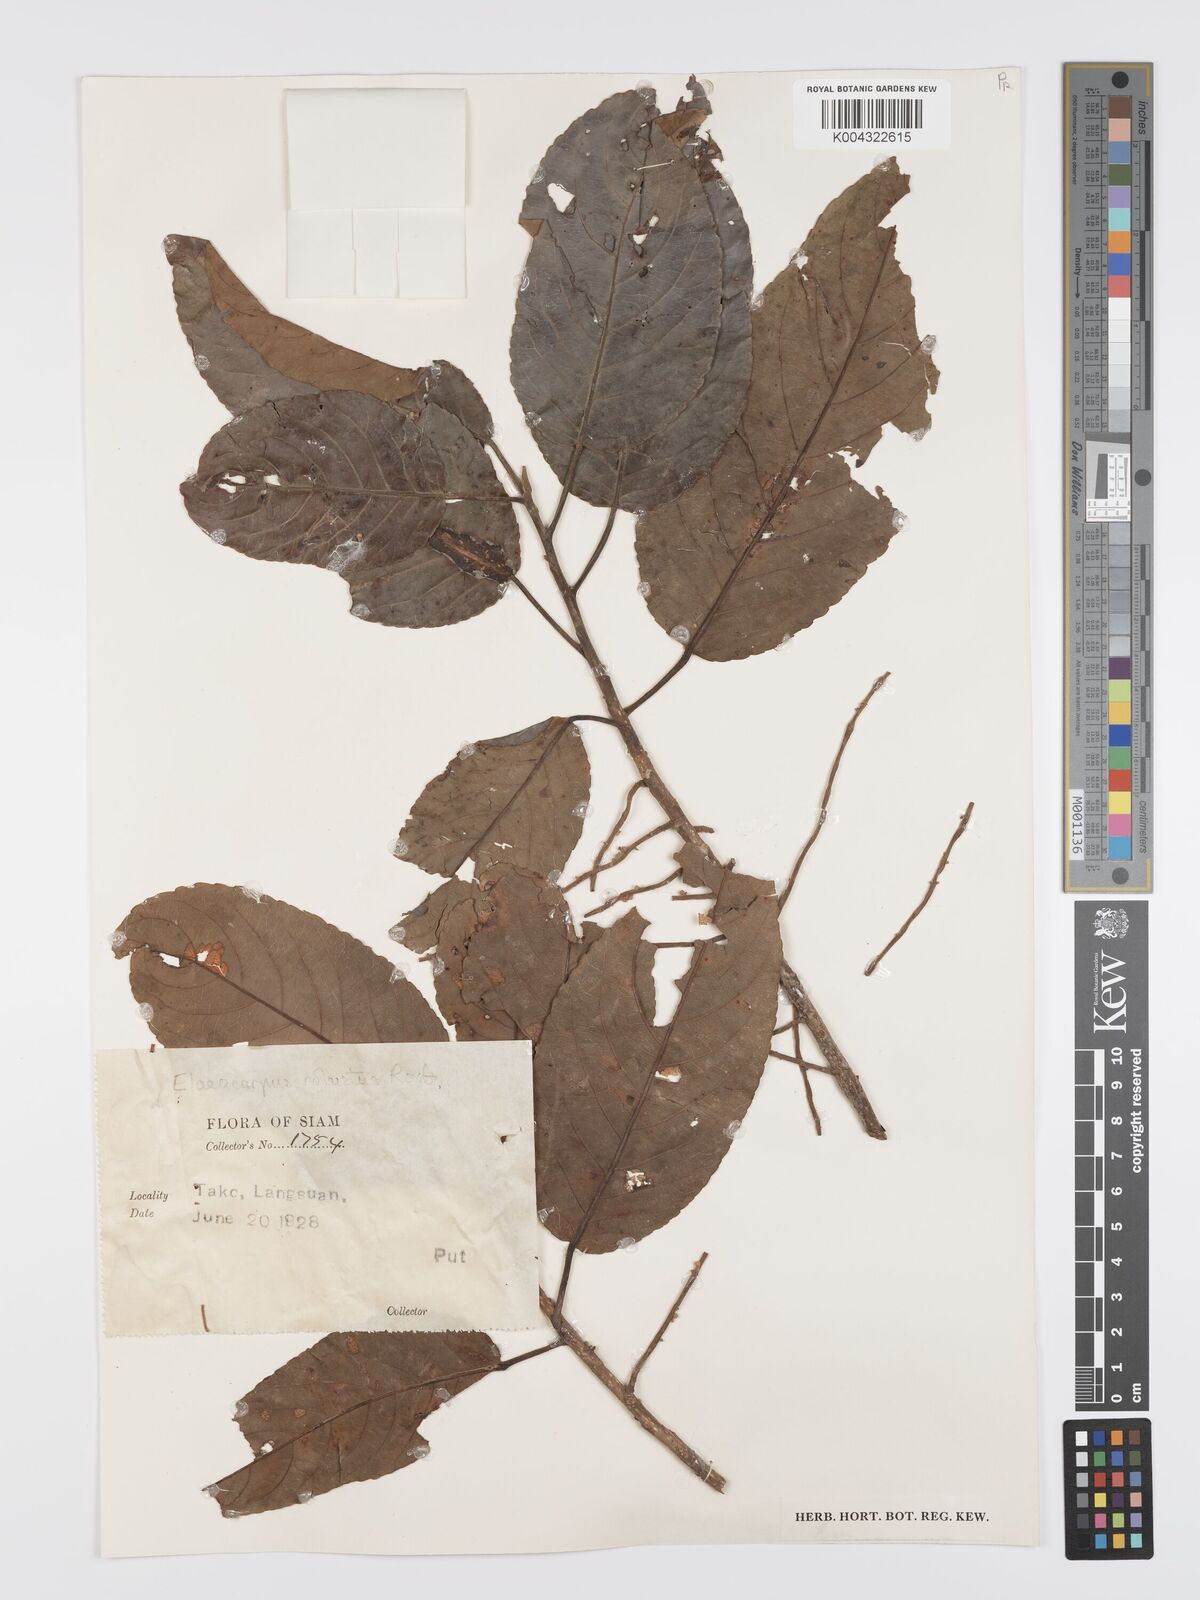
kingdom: Plantae
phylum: Tracheophyta
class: Magnoliopsida
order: Oxalidales
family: Elaeocarpaceae
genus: Elaeocarpus
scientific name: Elaeocarpus robustus
